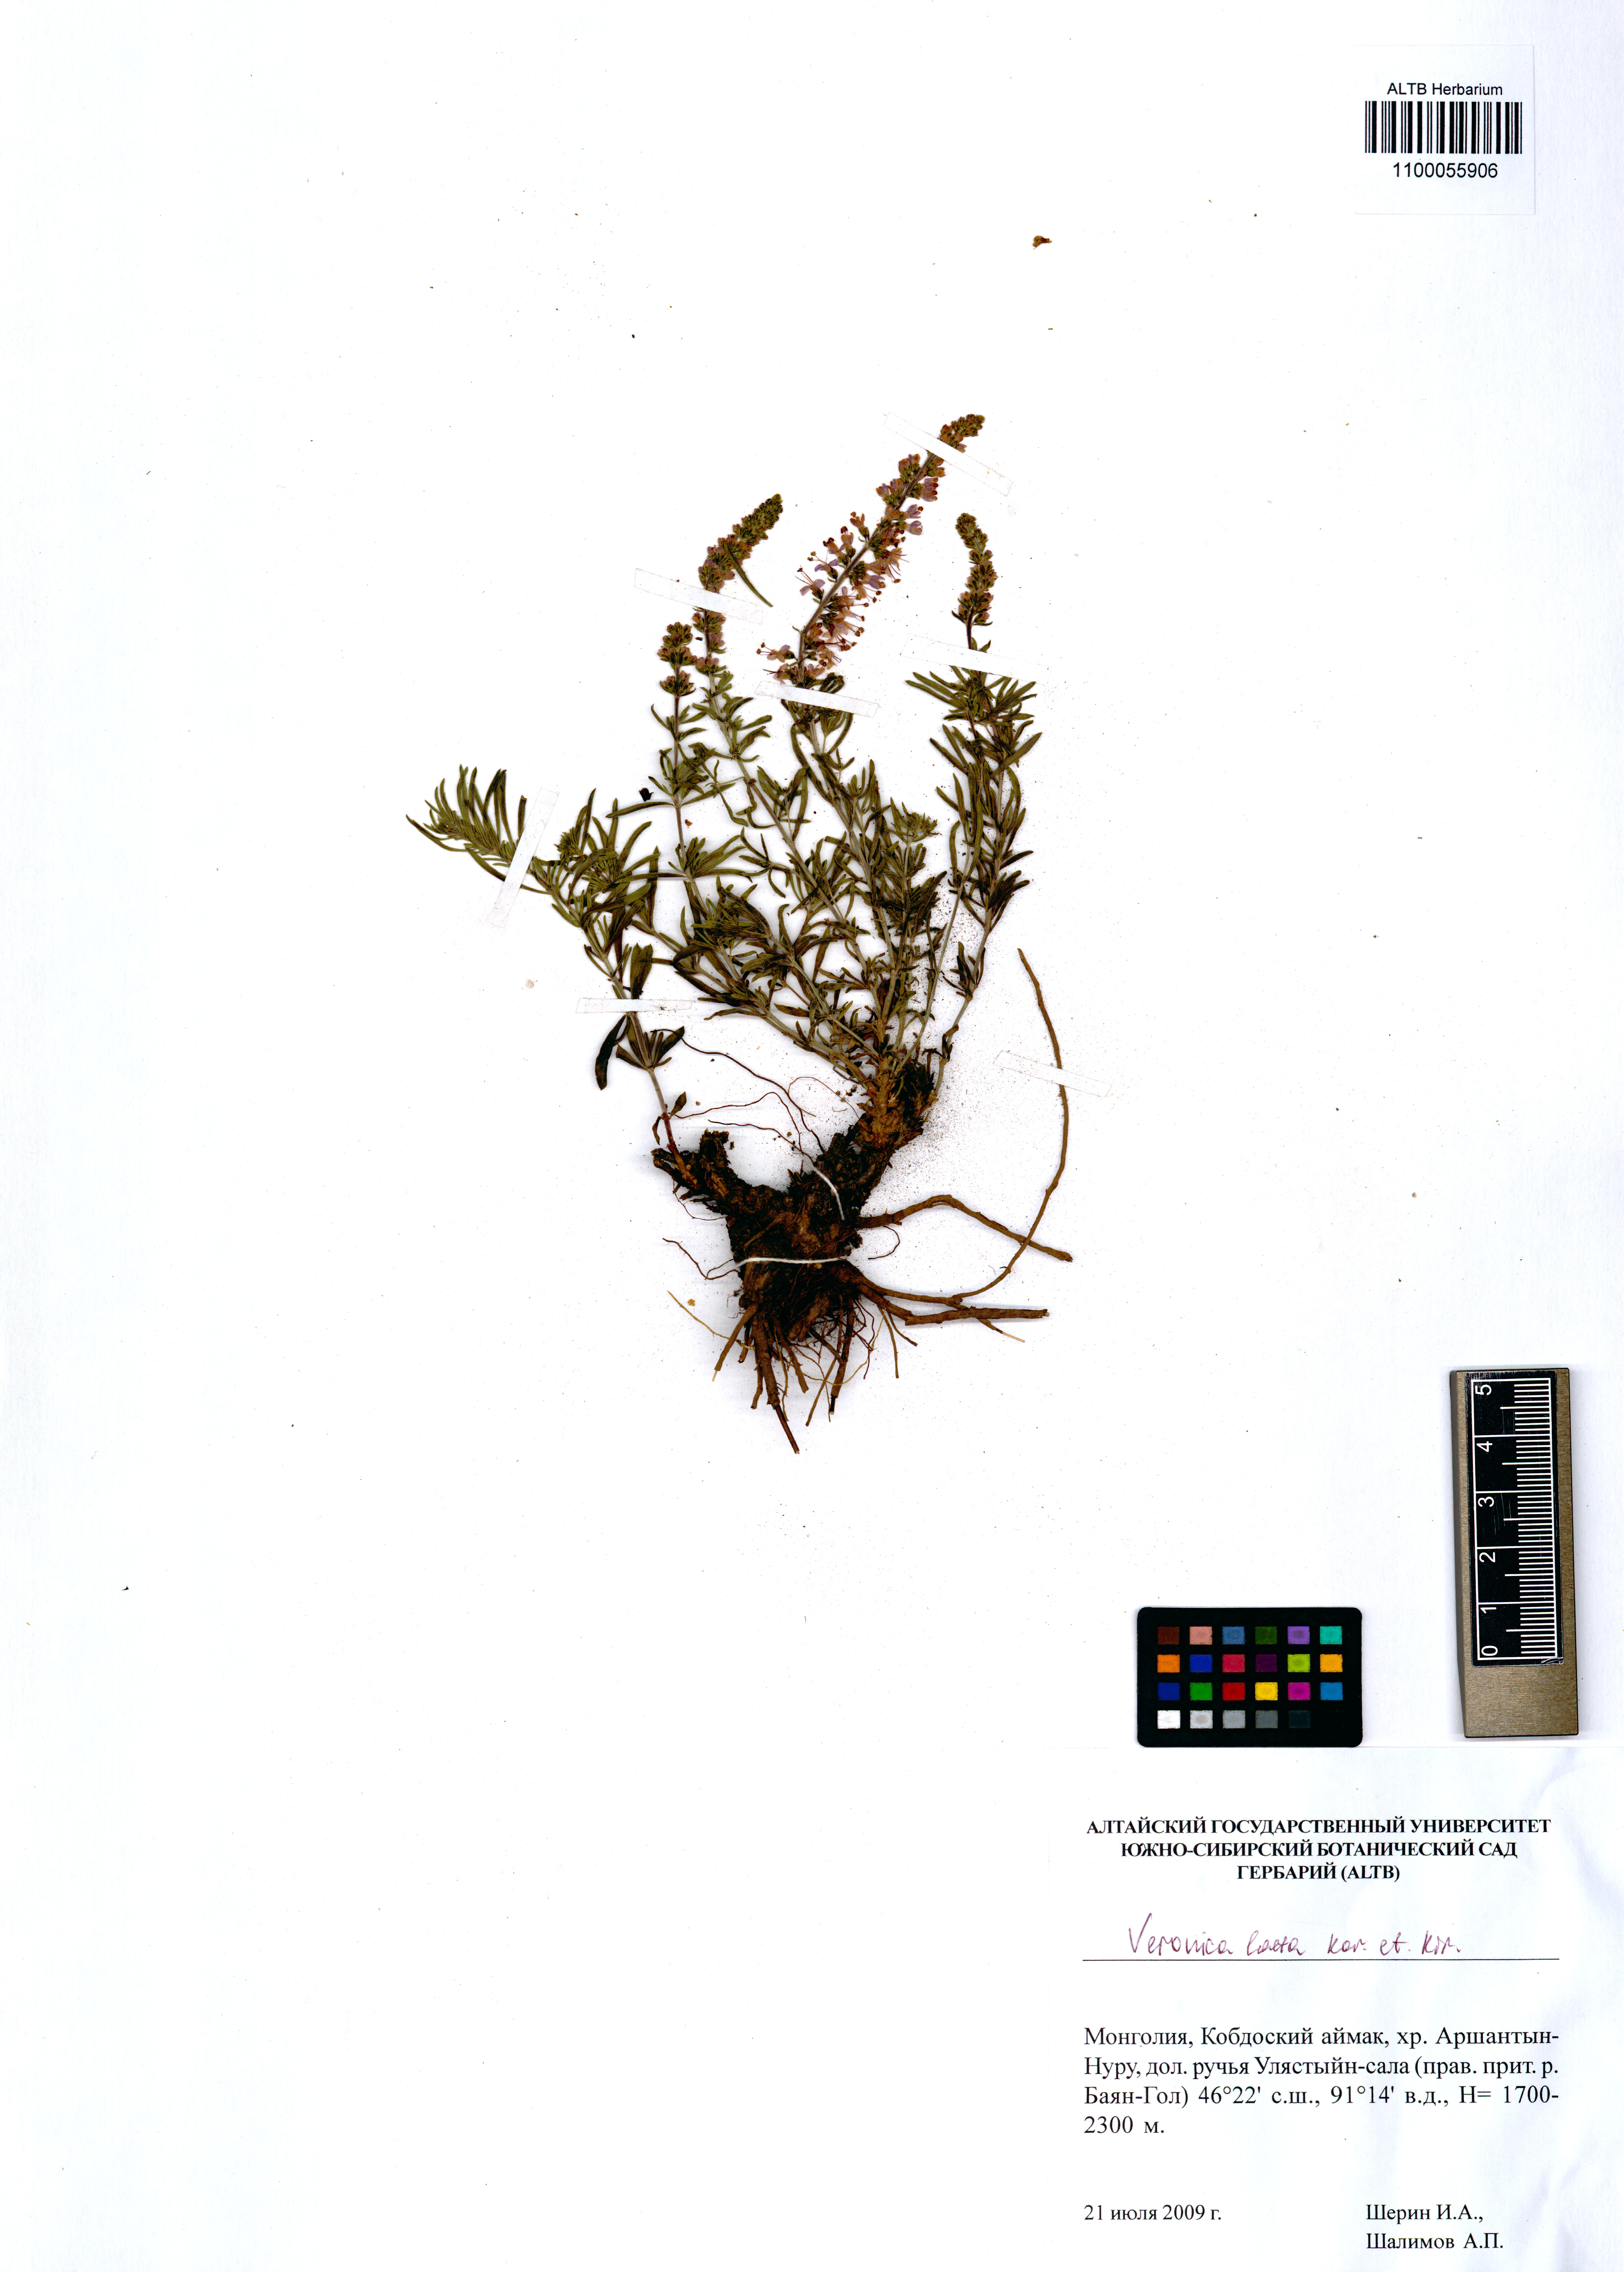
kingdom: Plantae
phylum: Tracheophyta
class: Magnoliopsida
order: Lamiales
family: Plantaginaceae
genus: Veronica
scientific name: Veronica laeta
